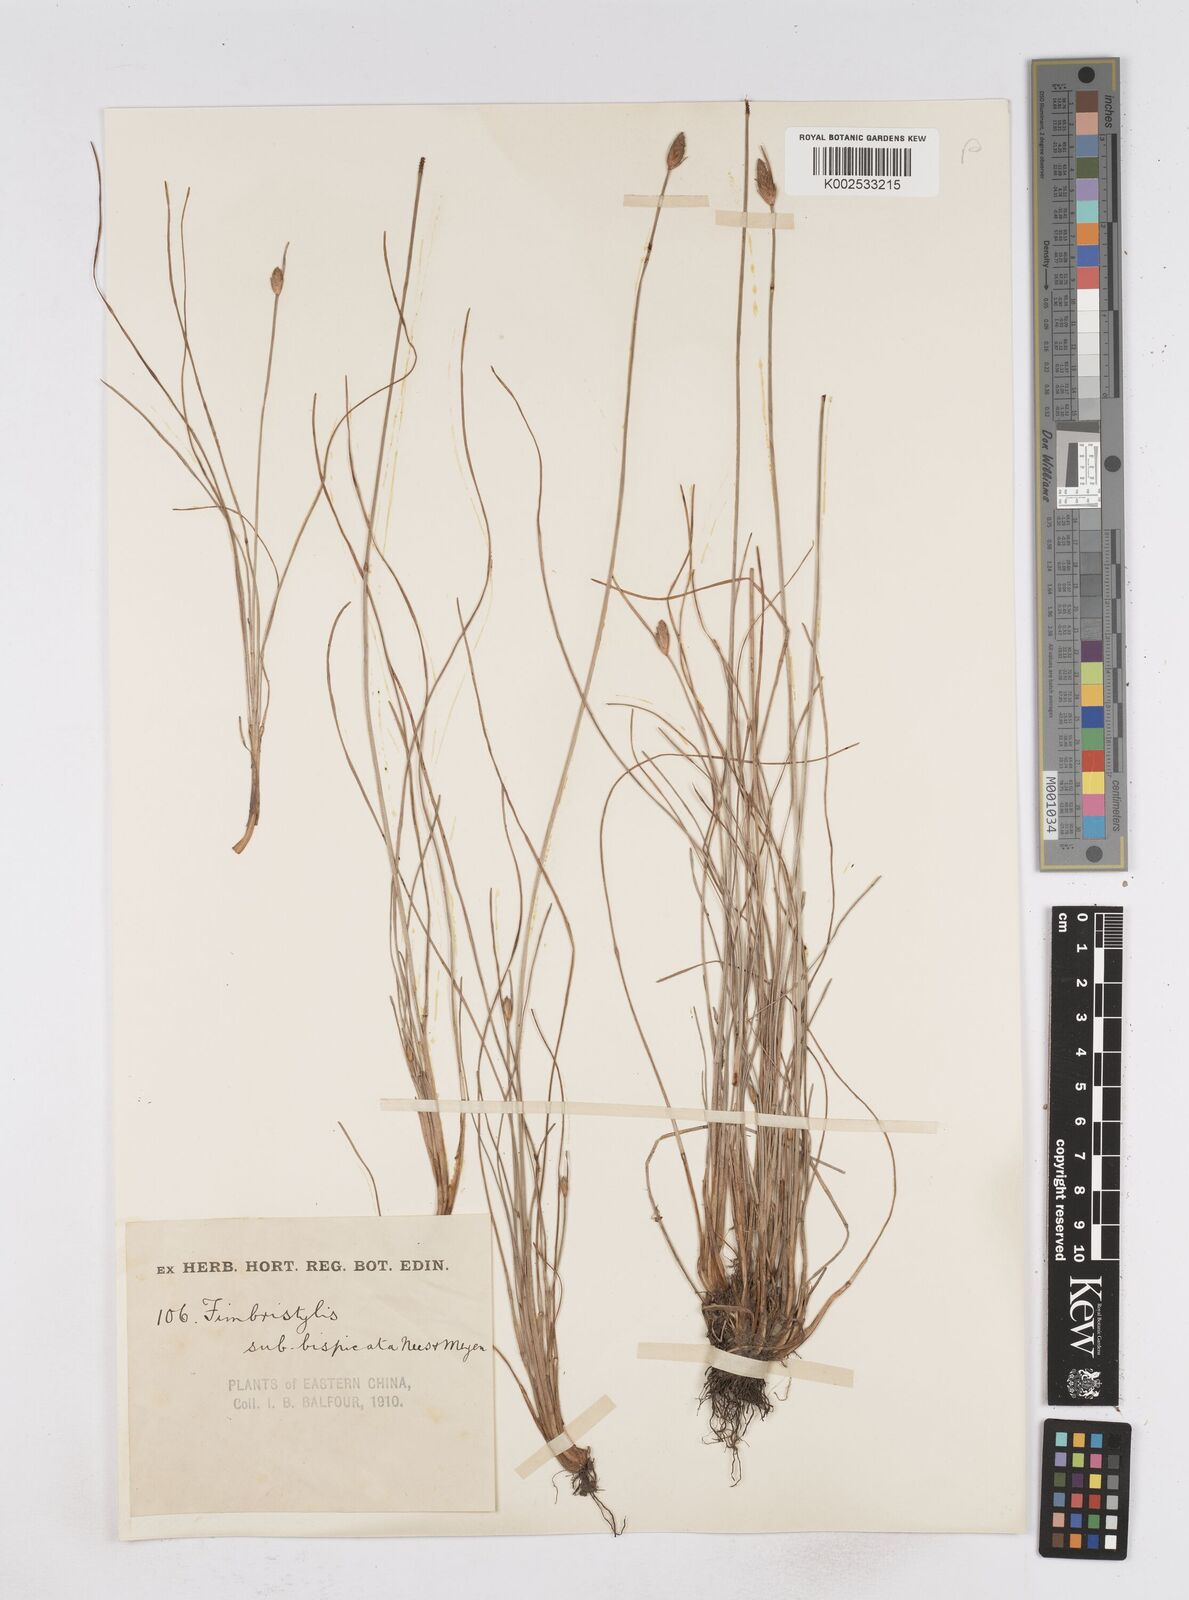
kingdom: Plantae
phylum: Tracheophyta
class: Liliopsida
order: Poales
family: Cyperaceae
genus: Fimbristylis
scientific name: Fimbristylis tristachya
